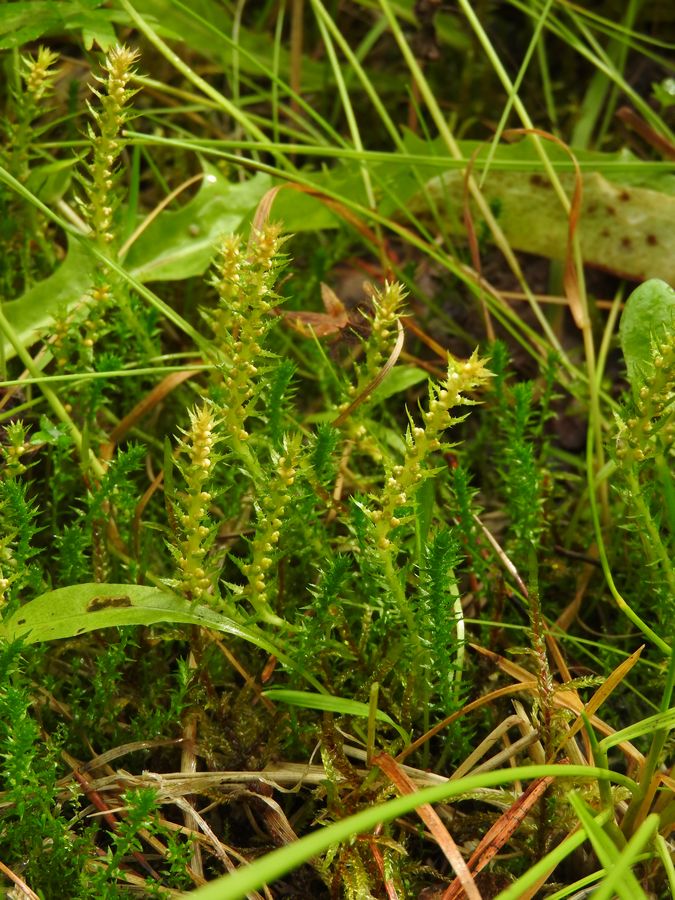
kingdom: Plantae
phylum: Tracheophyta
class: Lycopodiopsida
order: Selaginellales
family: Selaginellaceae
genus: Selaginella
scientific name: Selaginella selaginoides
